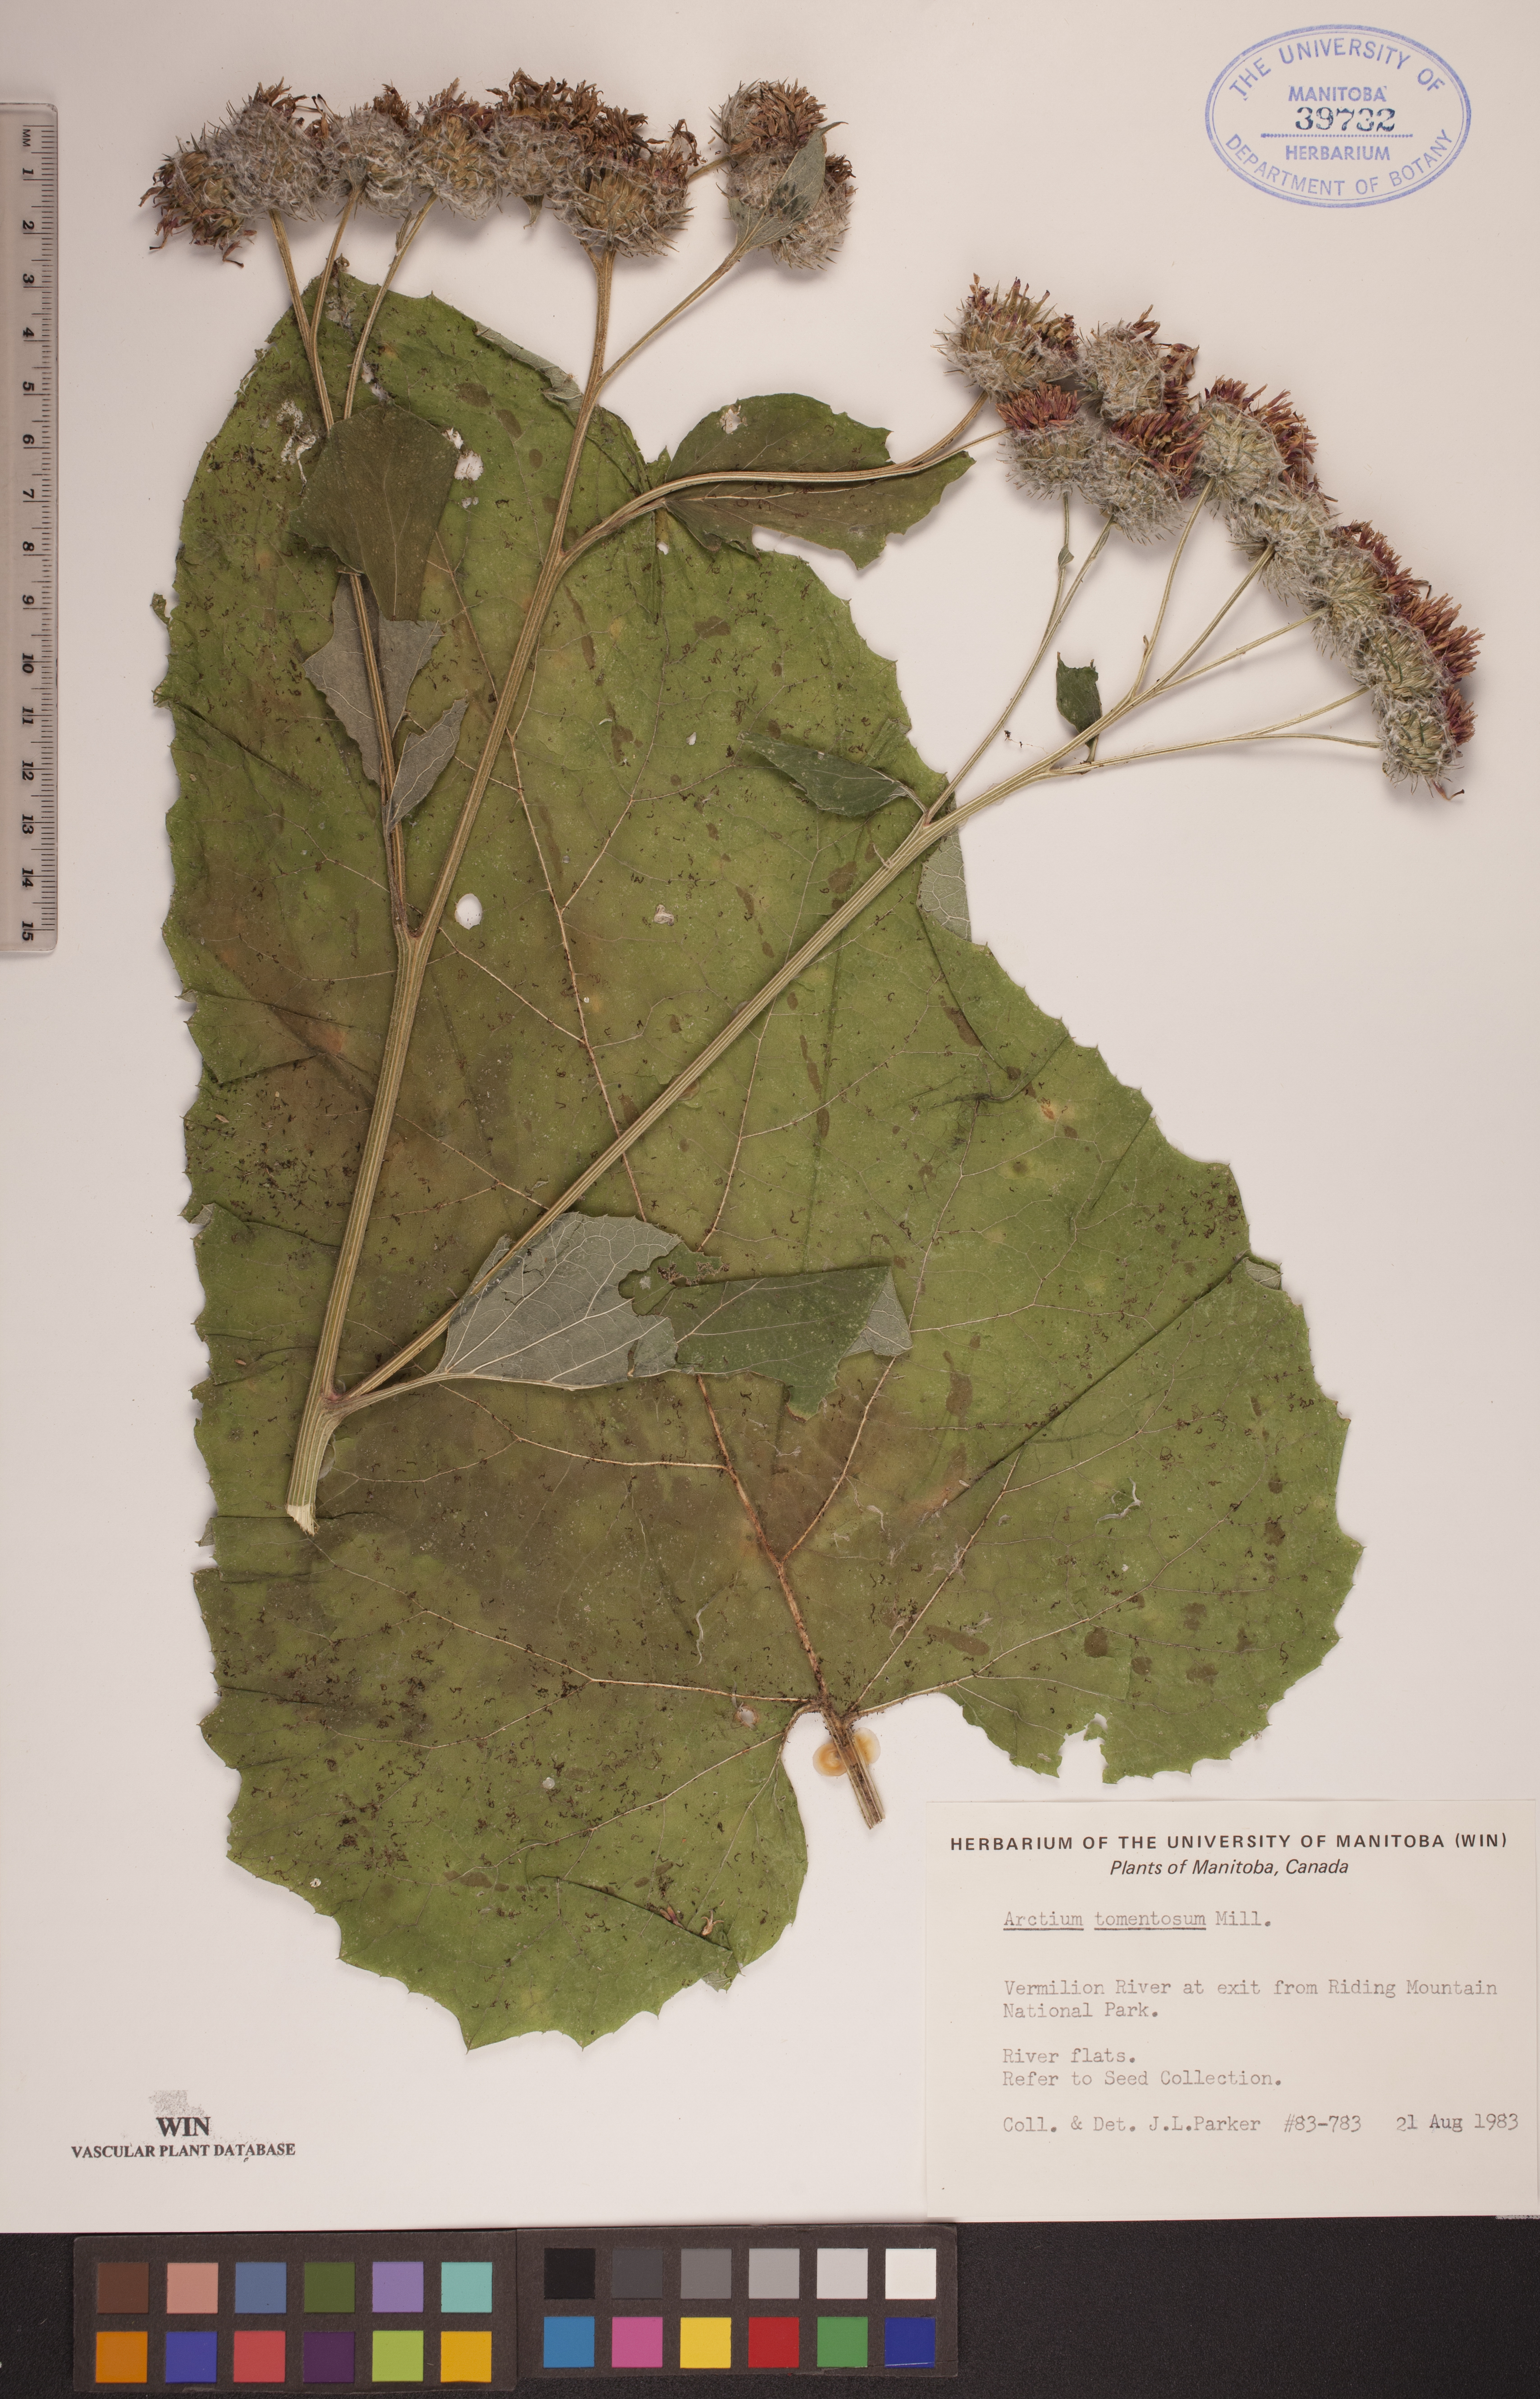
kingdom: Plantae
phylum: Tracheophyta
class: Magnoliopsida
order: Asterales
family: Asteraceae
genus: Arctium
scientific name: Arctium tomentosum
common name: Woolly burdock
